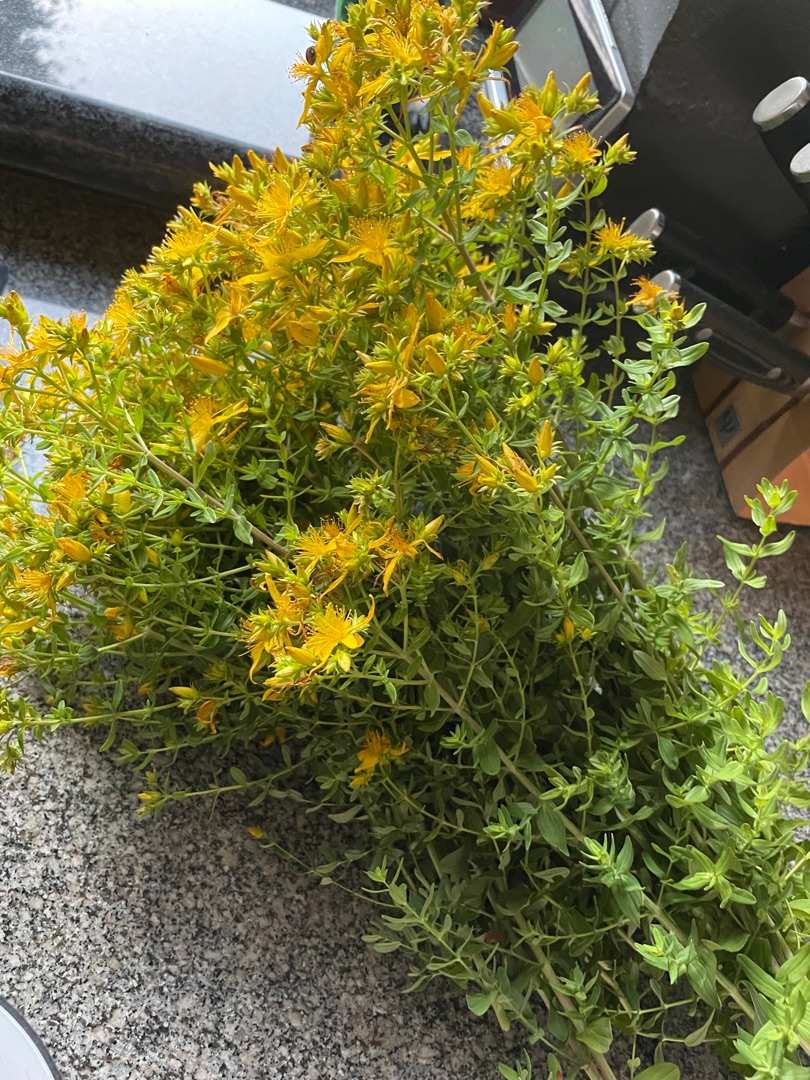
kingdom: Plantae
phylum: Tracheophyta
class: Magnoliopsida
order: Malpighiales
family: Hypericaceae
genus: Hypericum
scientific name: Hypericum perforatum
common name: Prikbladet perikon
